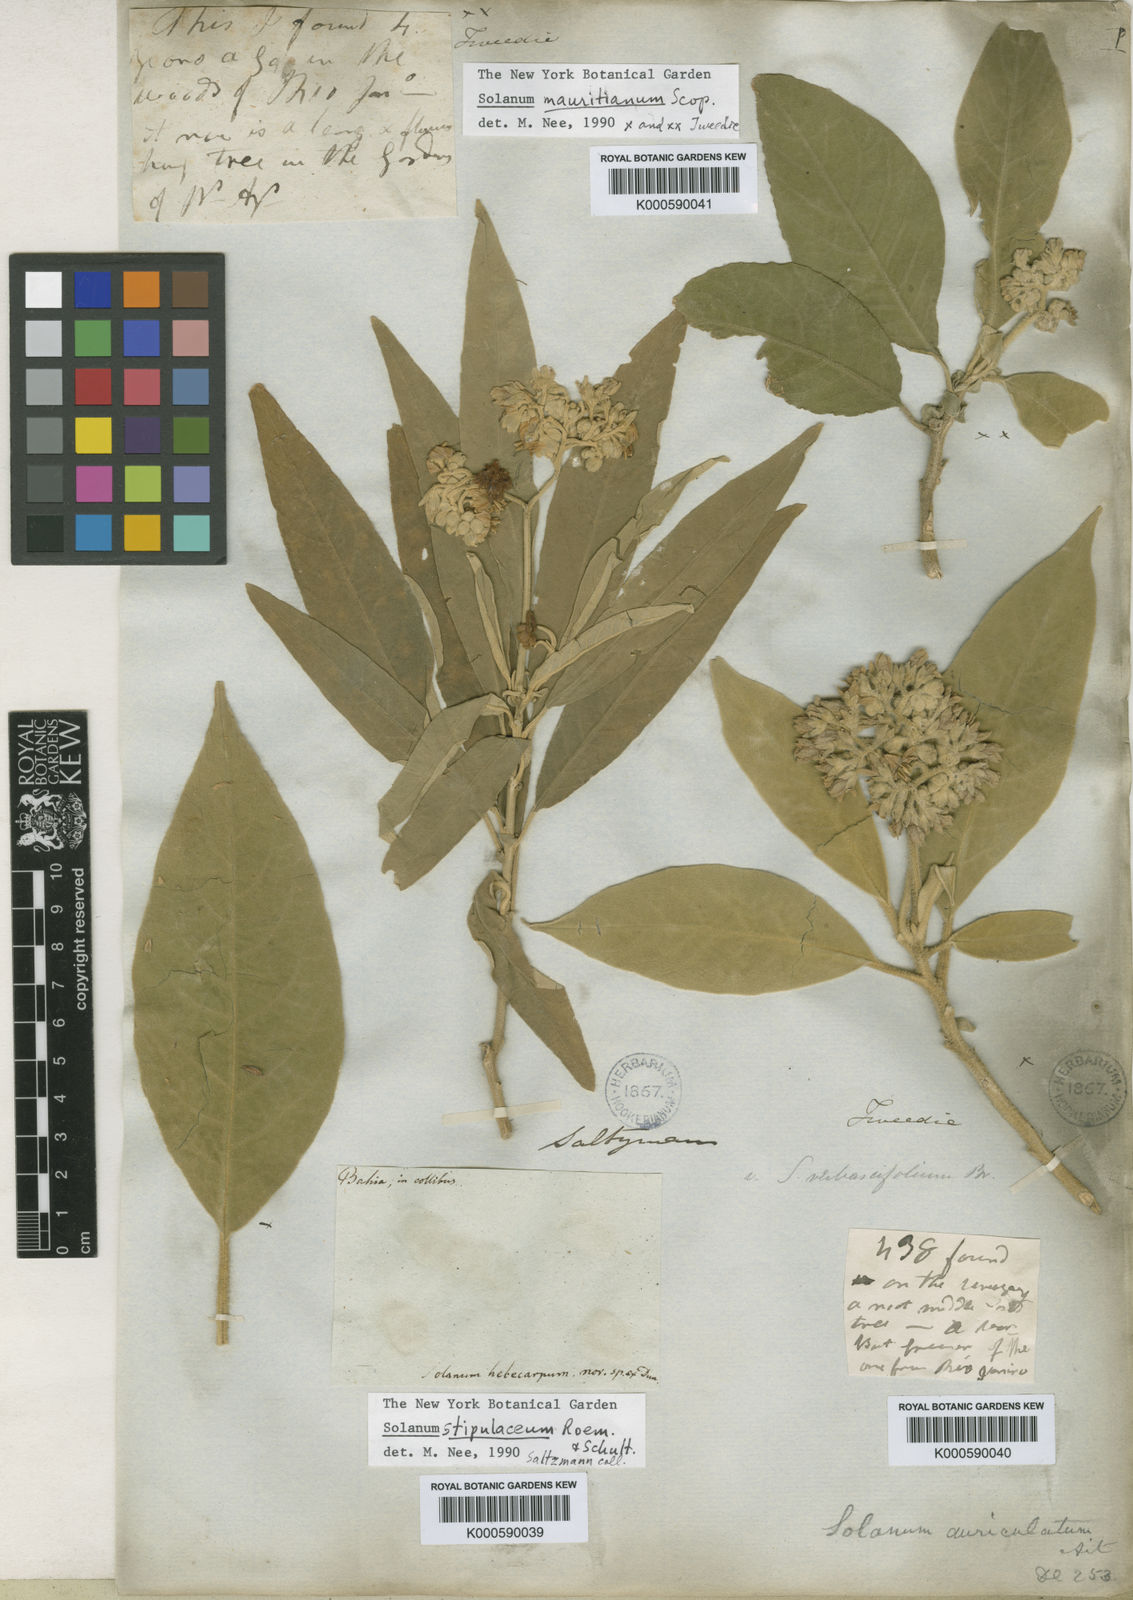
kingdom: Plantae
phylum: Tracheophyta
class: Magnoliopsida
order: Solanales
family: Solanaceae
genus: Solanum
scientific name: Solanum
